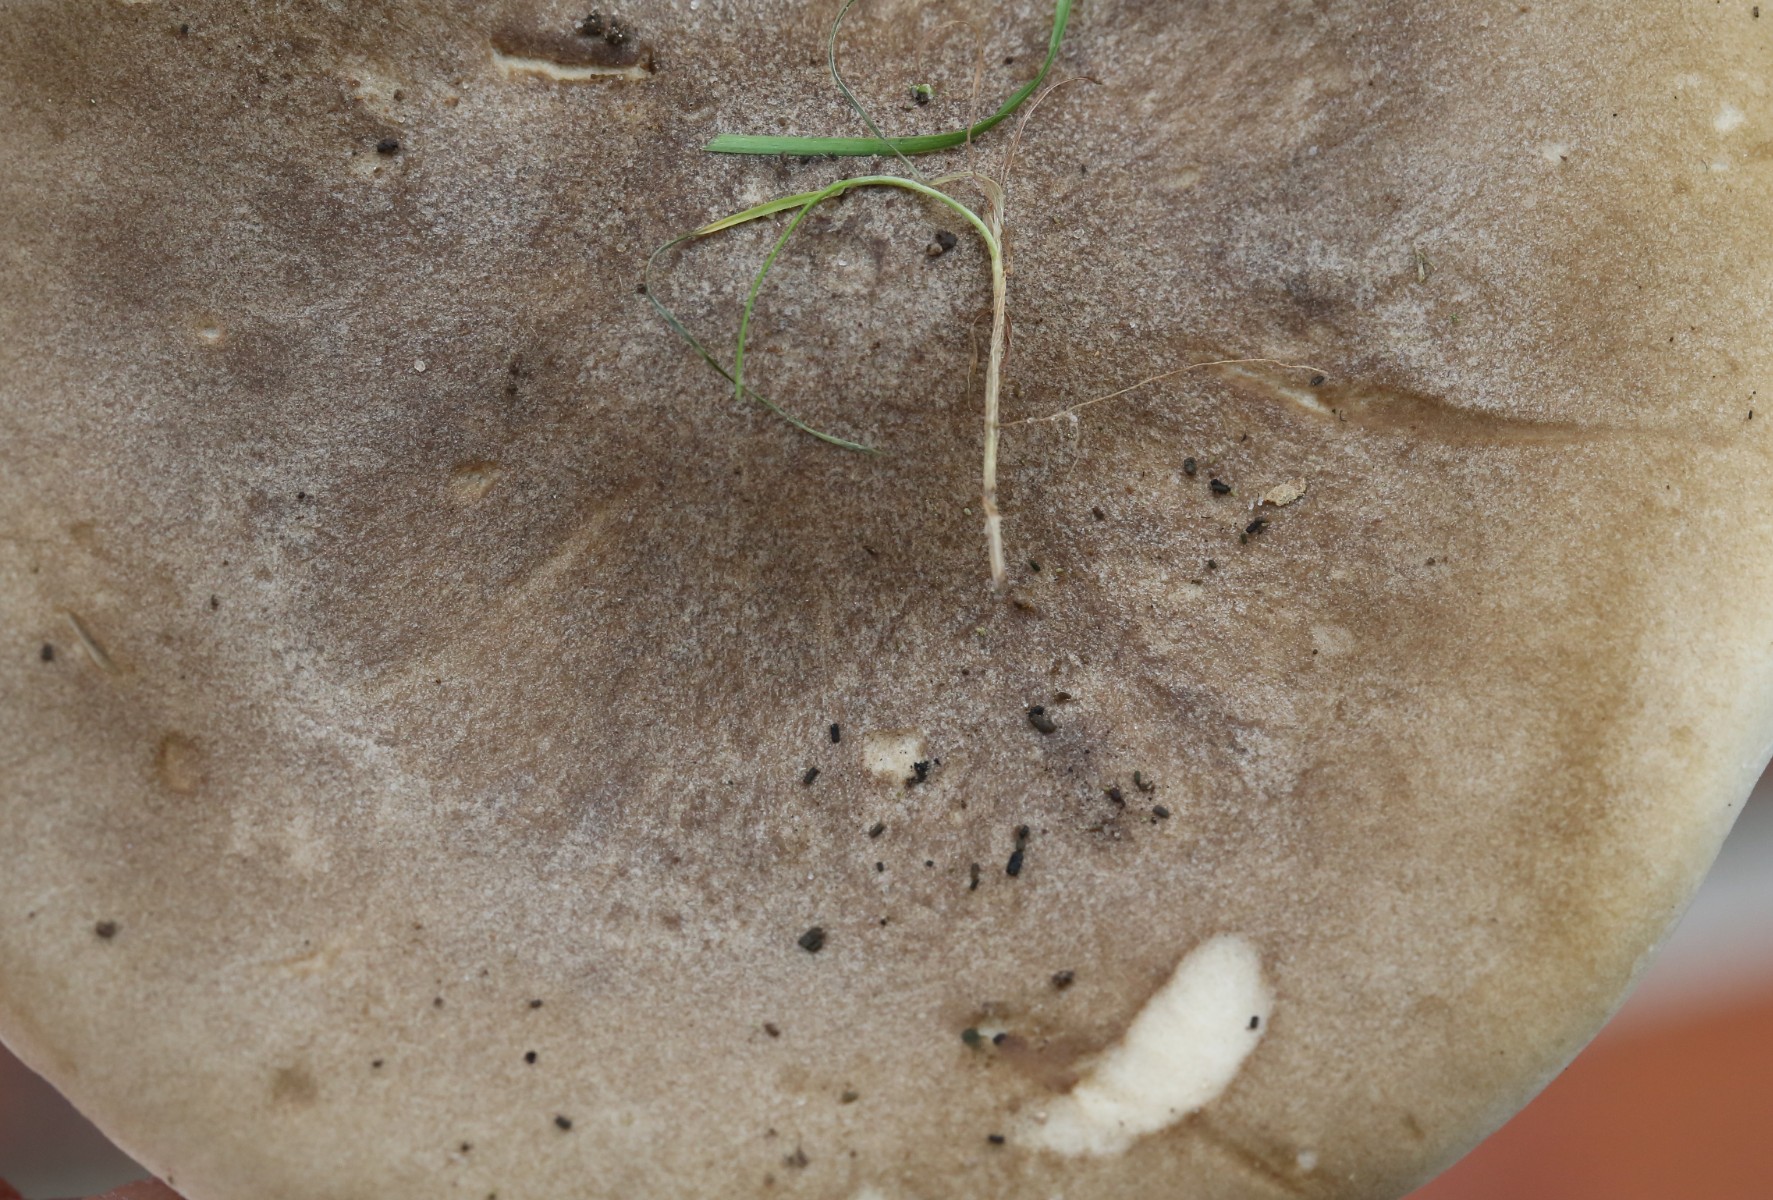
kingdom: Fungi
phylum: Basidiomycota
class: Agaricomycetes
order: Agaricales
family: Tricholomataceae
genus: Melanoleuca
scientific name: Melanoleuca
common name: munkehat
